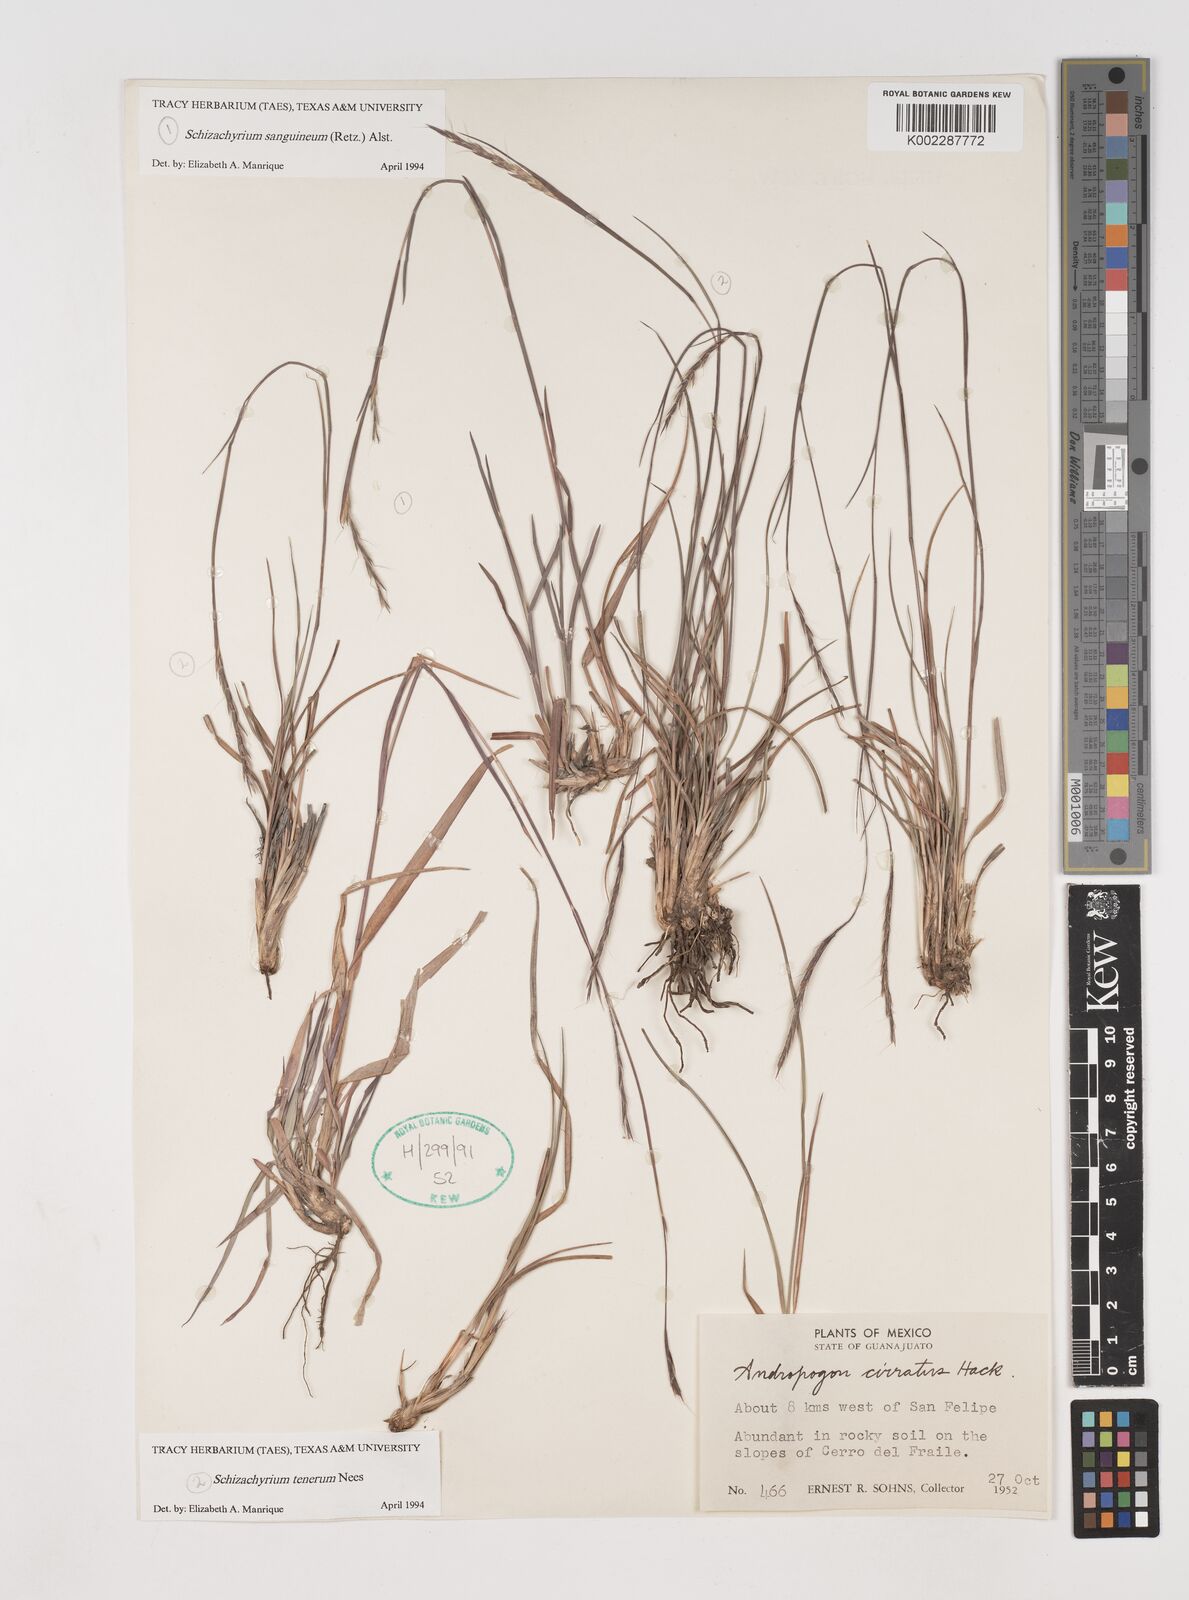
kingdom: Plantae
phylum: Tracheophyta
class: Liliopsida
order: Poales
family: Poaceae
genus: Andropogon
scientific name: Andropogon tener
